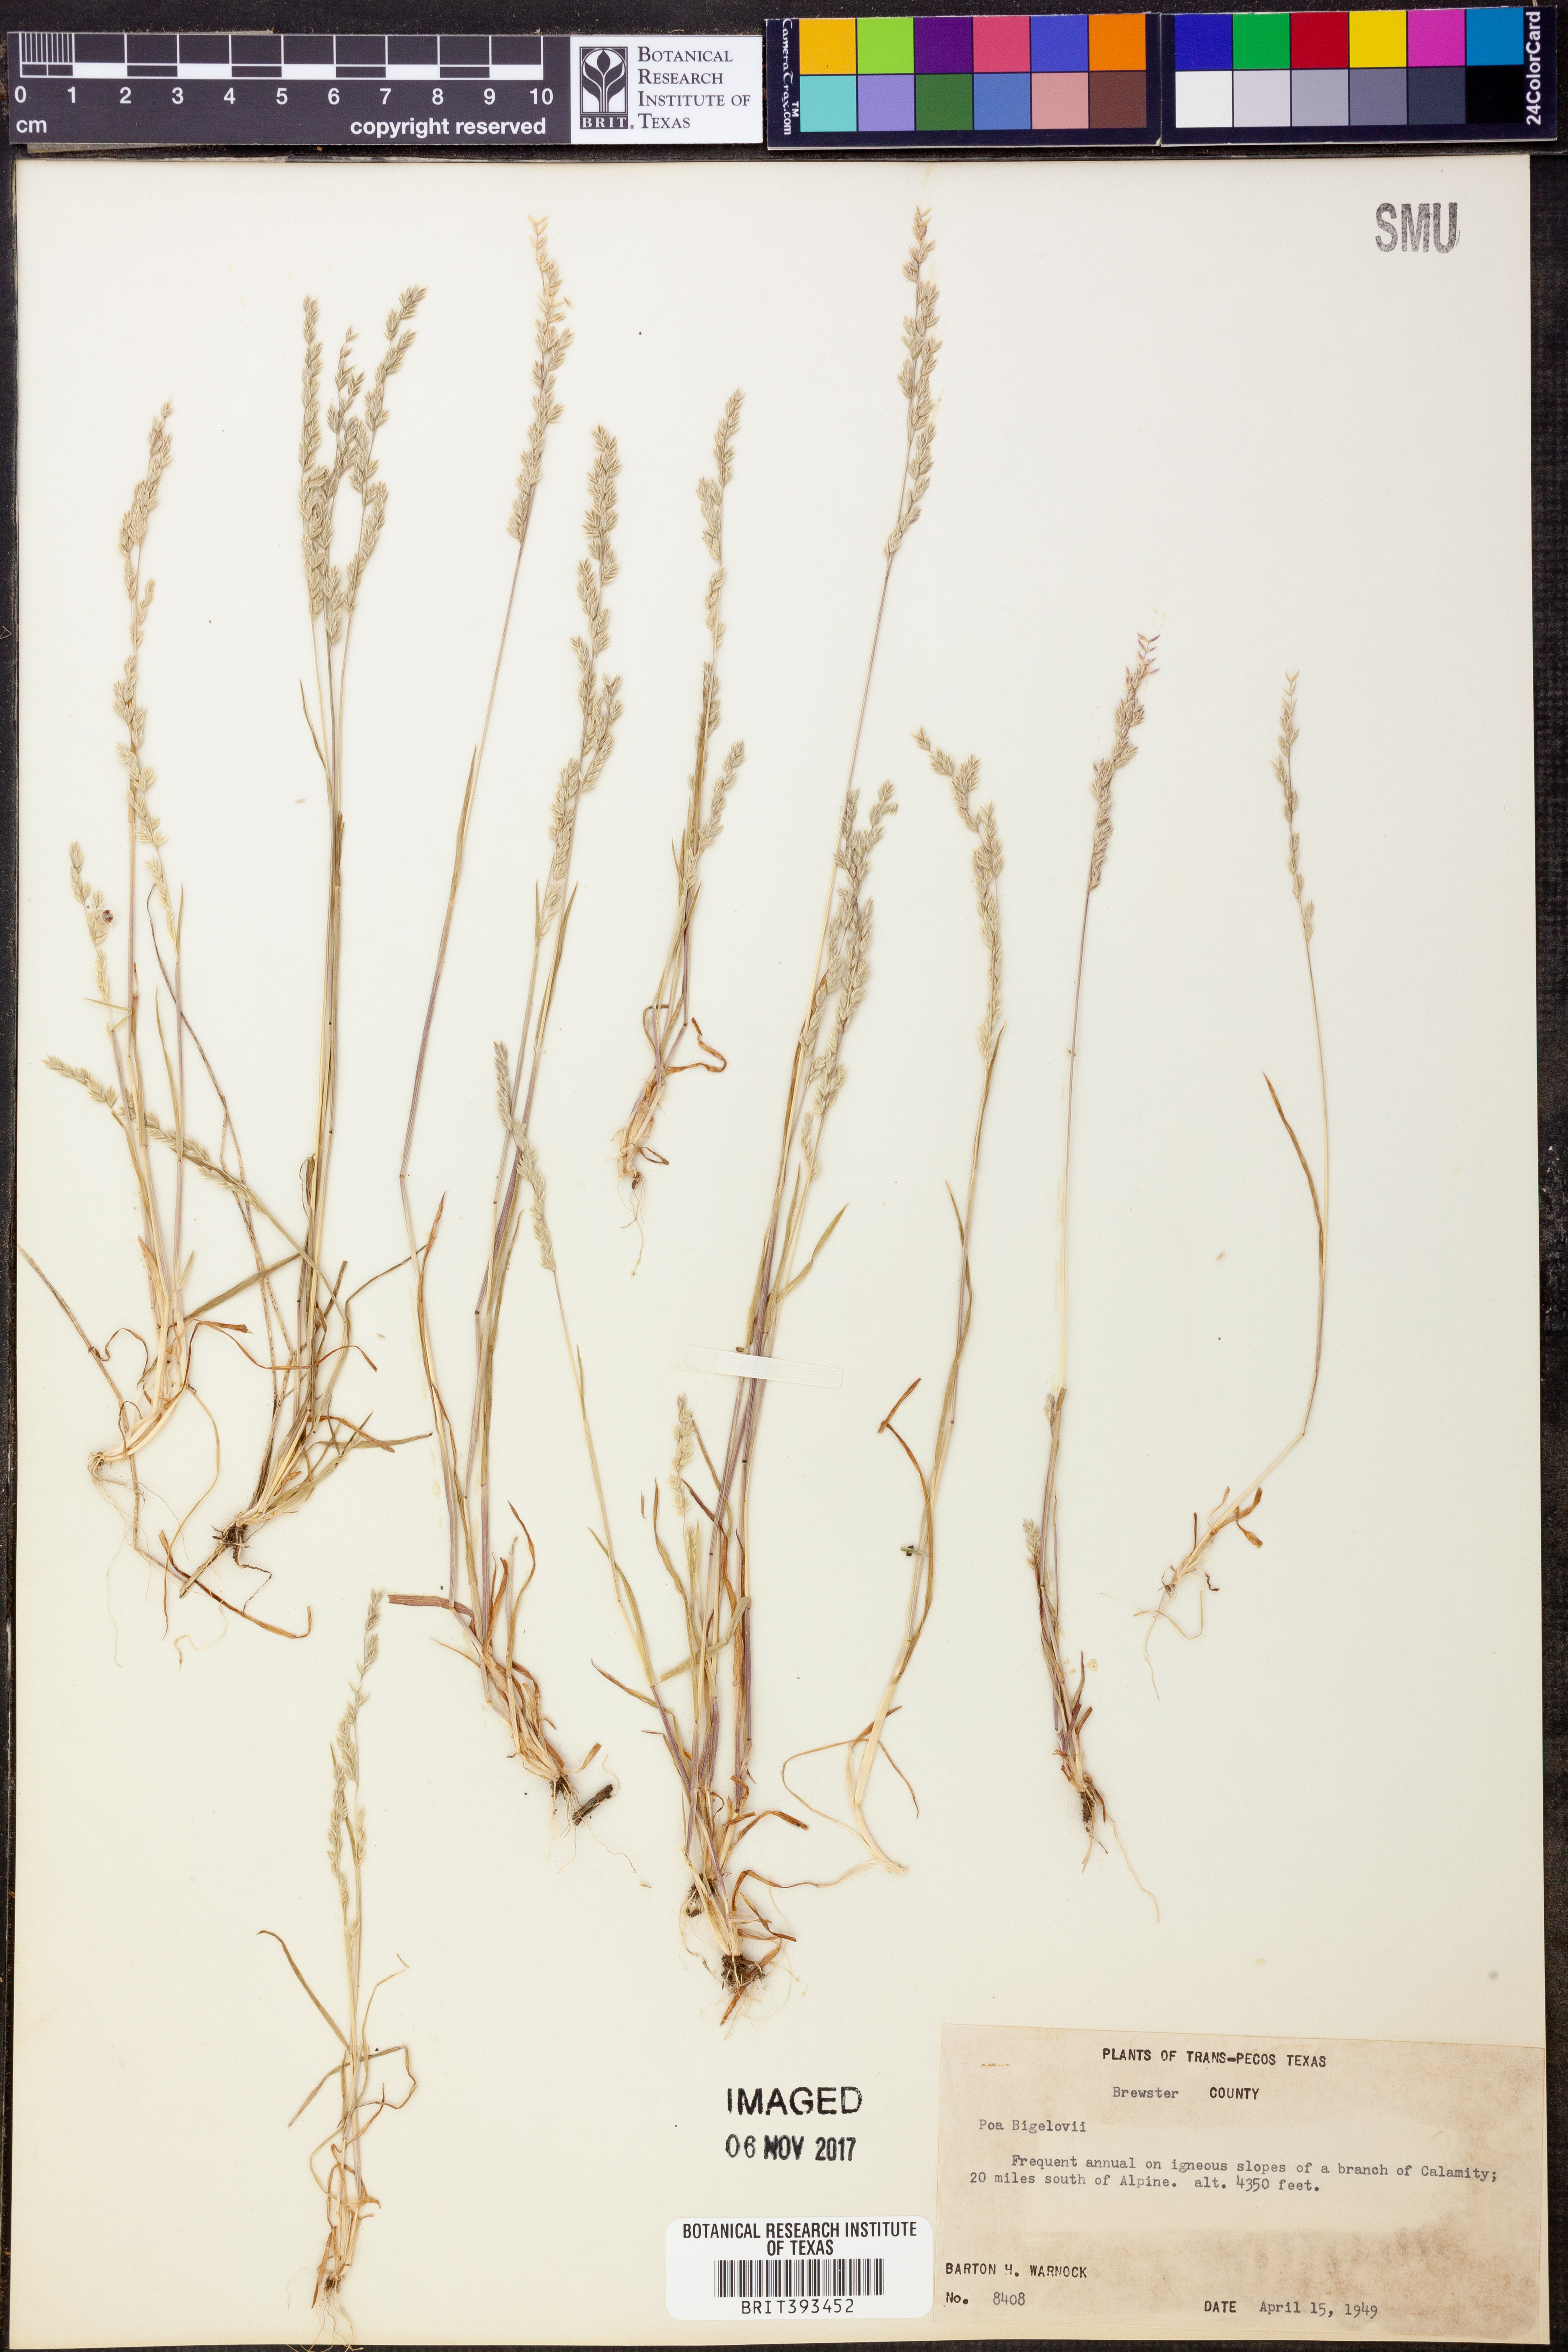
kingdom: Plantae
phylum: Tracheophyta
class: Liliopsida
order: Poales
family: Poaceae
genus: Poa
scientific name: Poa bigelovii
